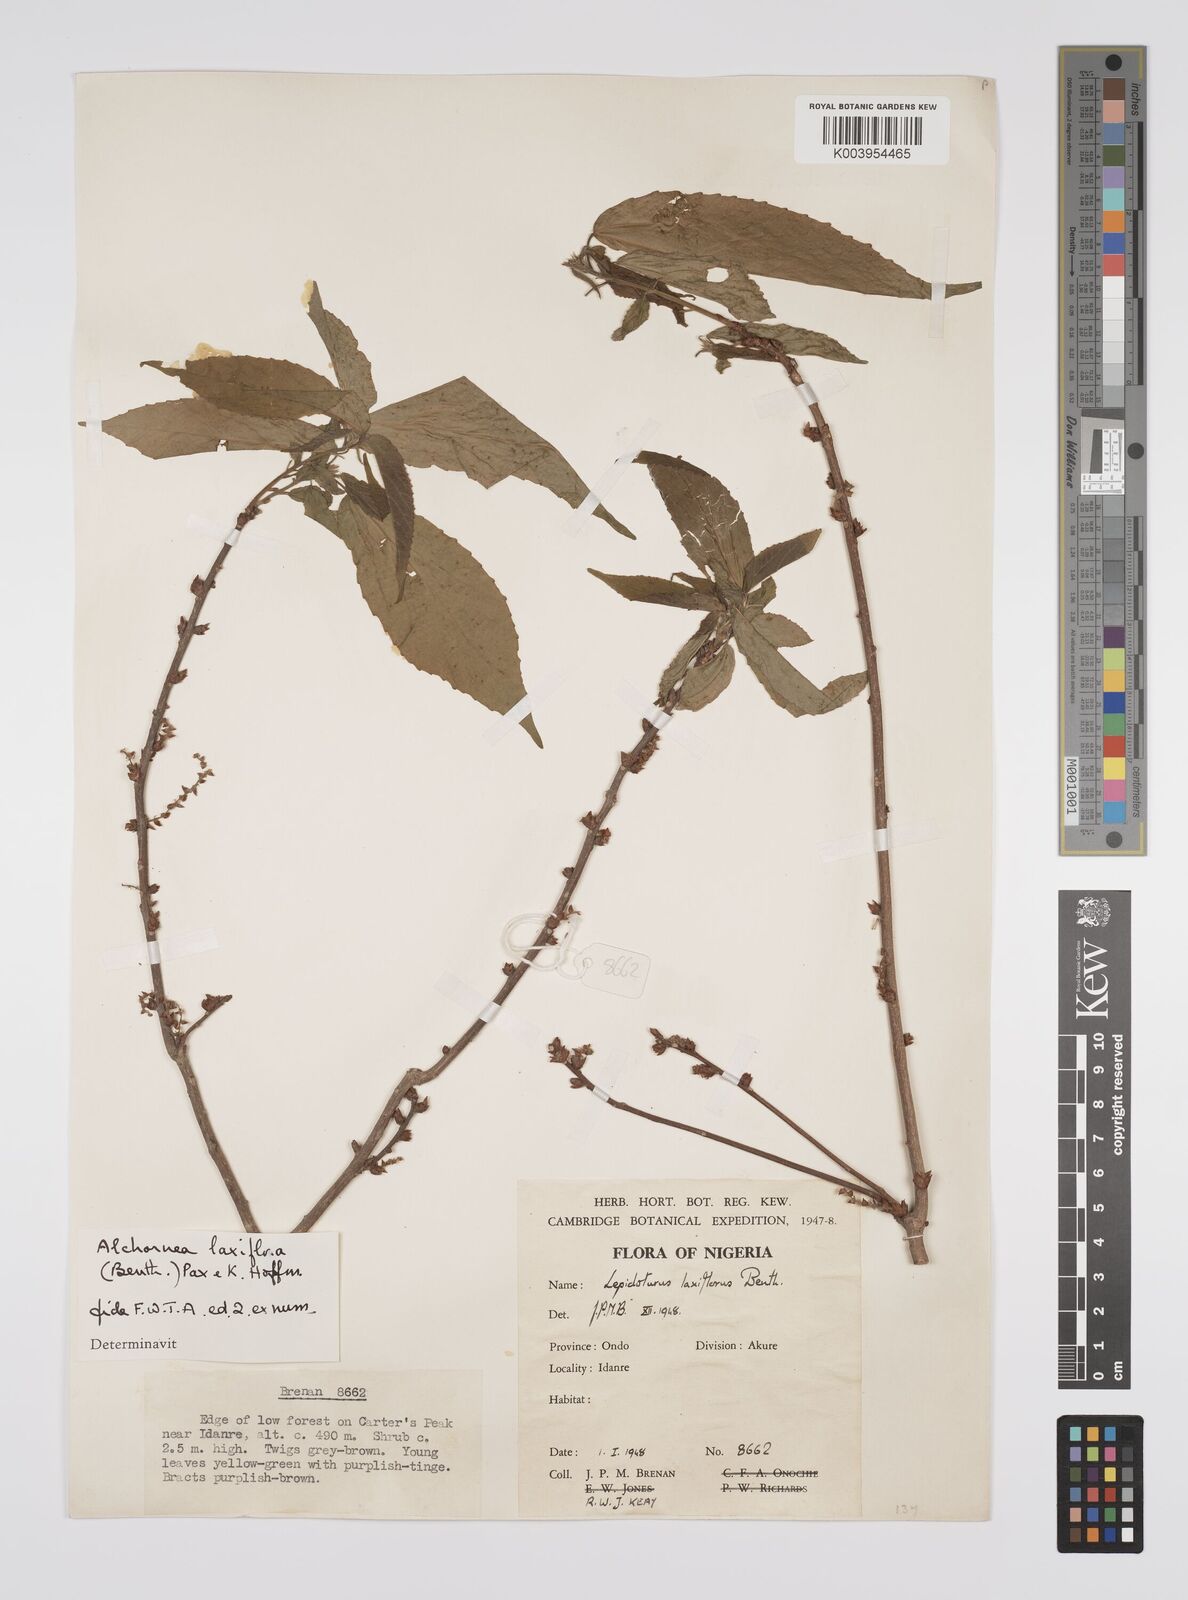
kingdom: Plantae
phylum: Tracheophyta
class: Magnoliopsida
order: Malpighiales
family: Euphorbiaceae
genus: Alchornea
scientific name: Alchornea laxiflora
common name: Lowveld bead-string
